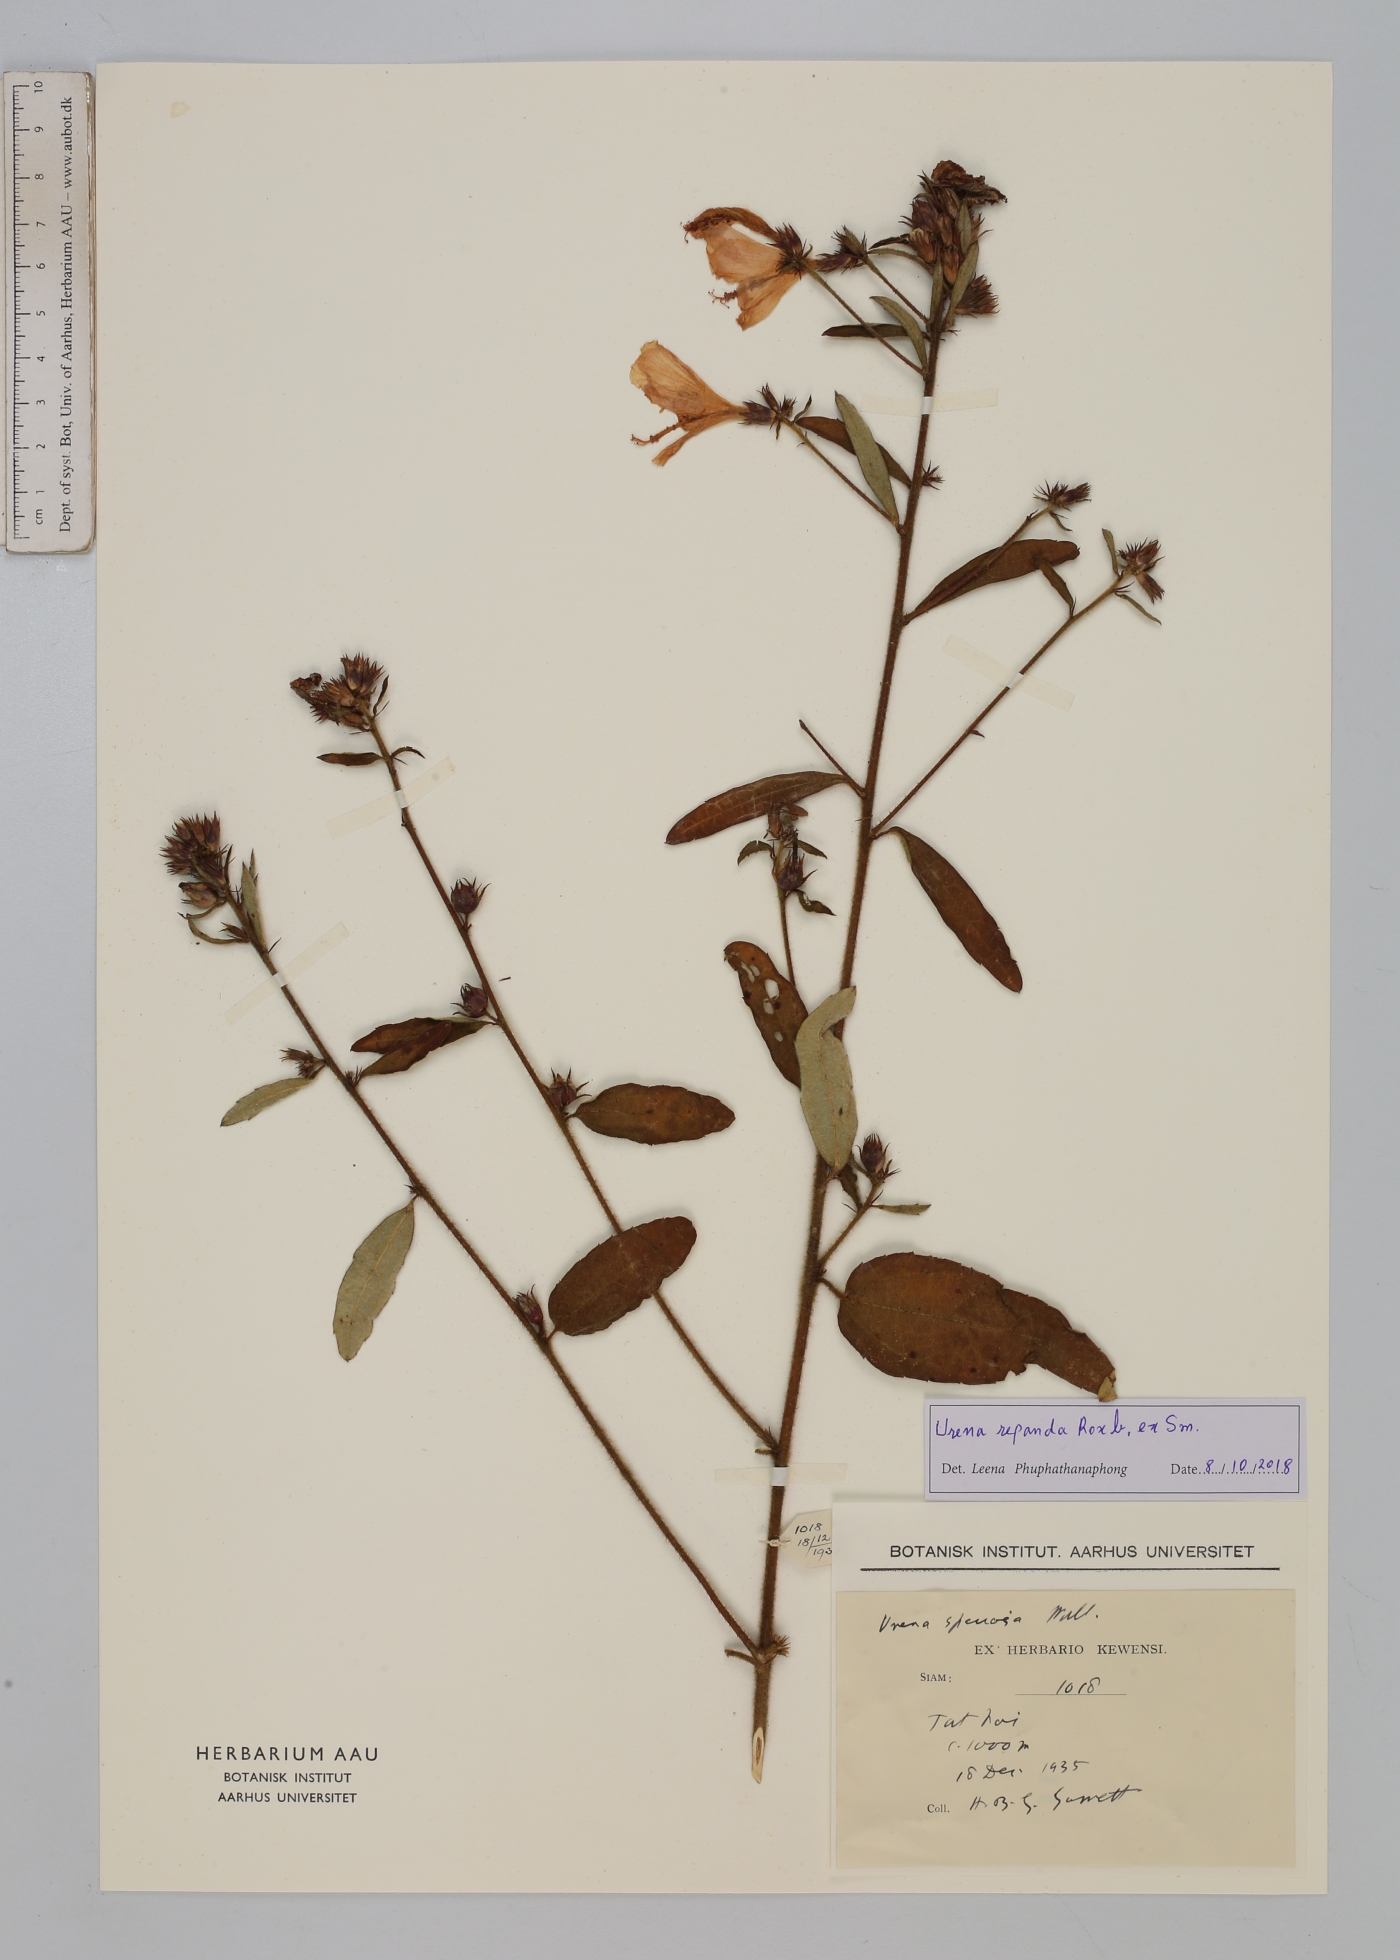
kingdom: Plantae
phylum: Tracheophyta
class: Magnoliopsida
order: Malvales
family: Malvaceae
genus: Urena
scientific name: Urena repanda
